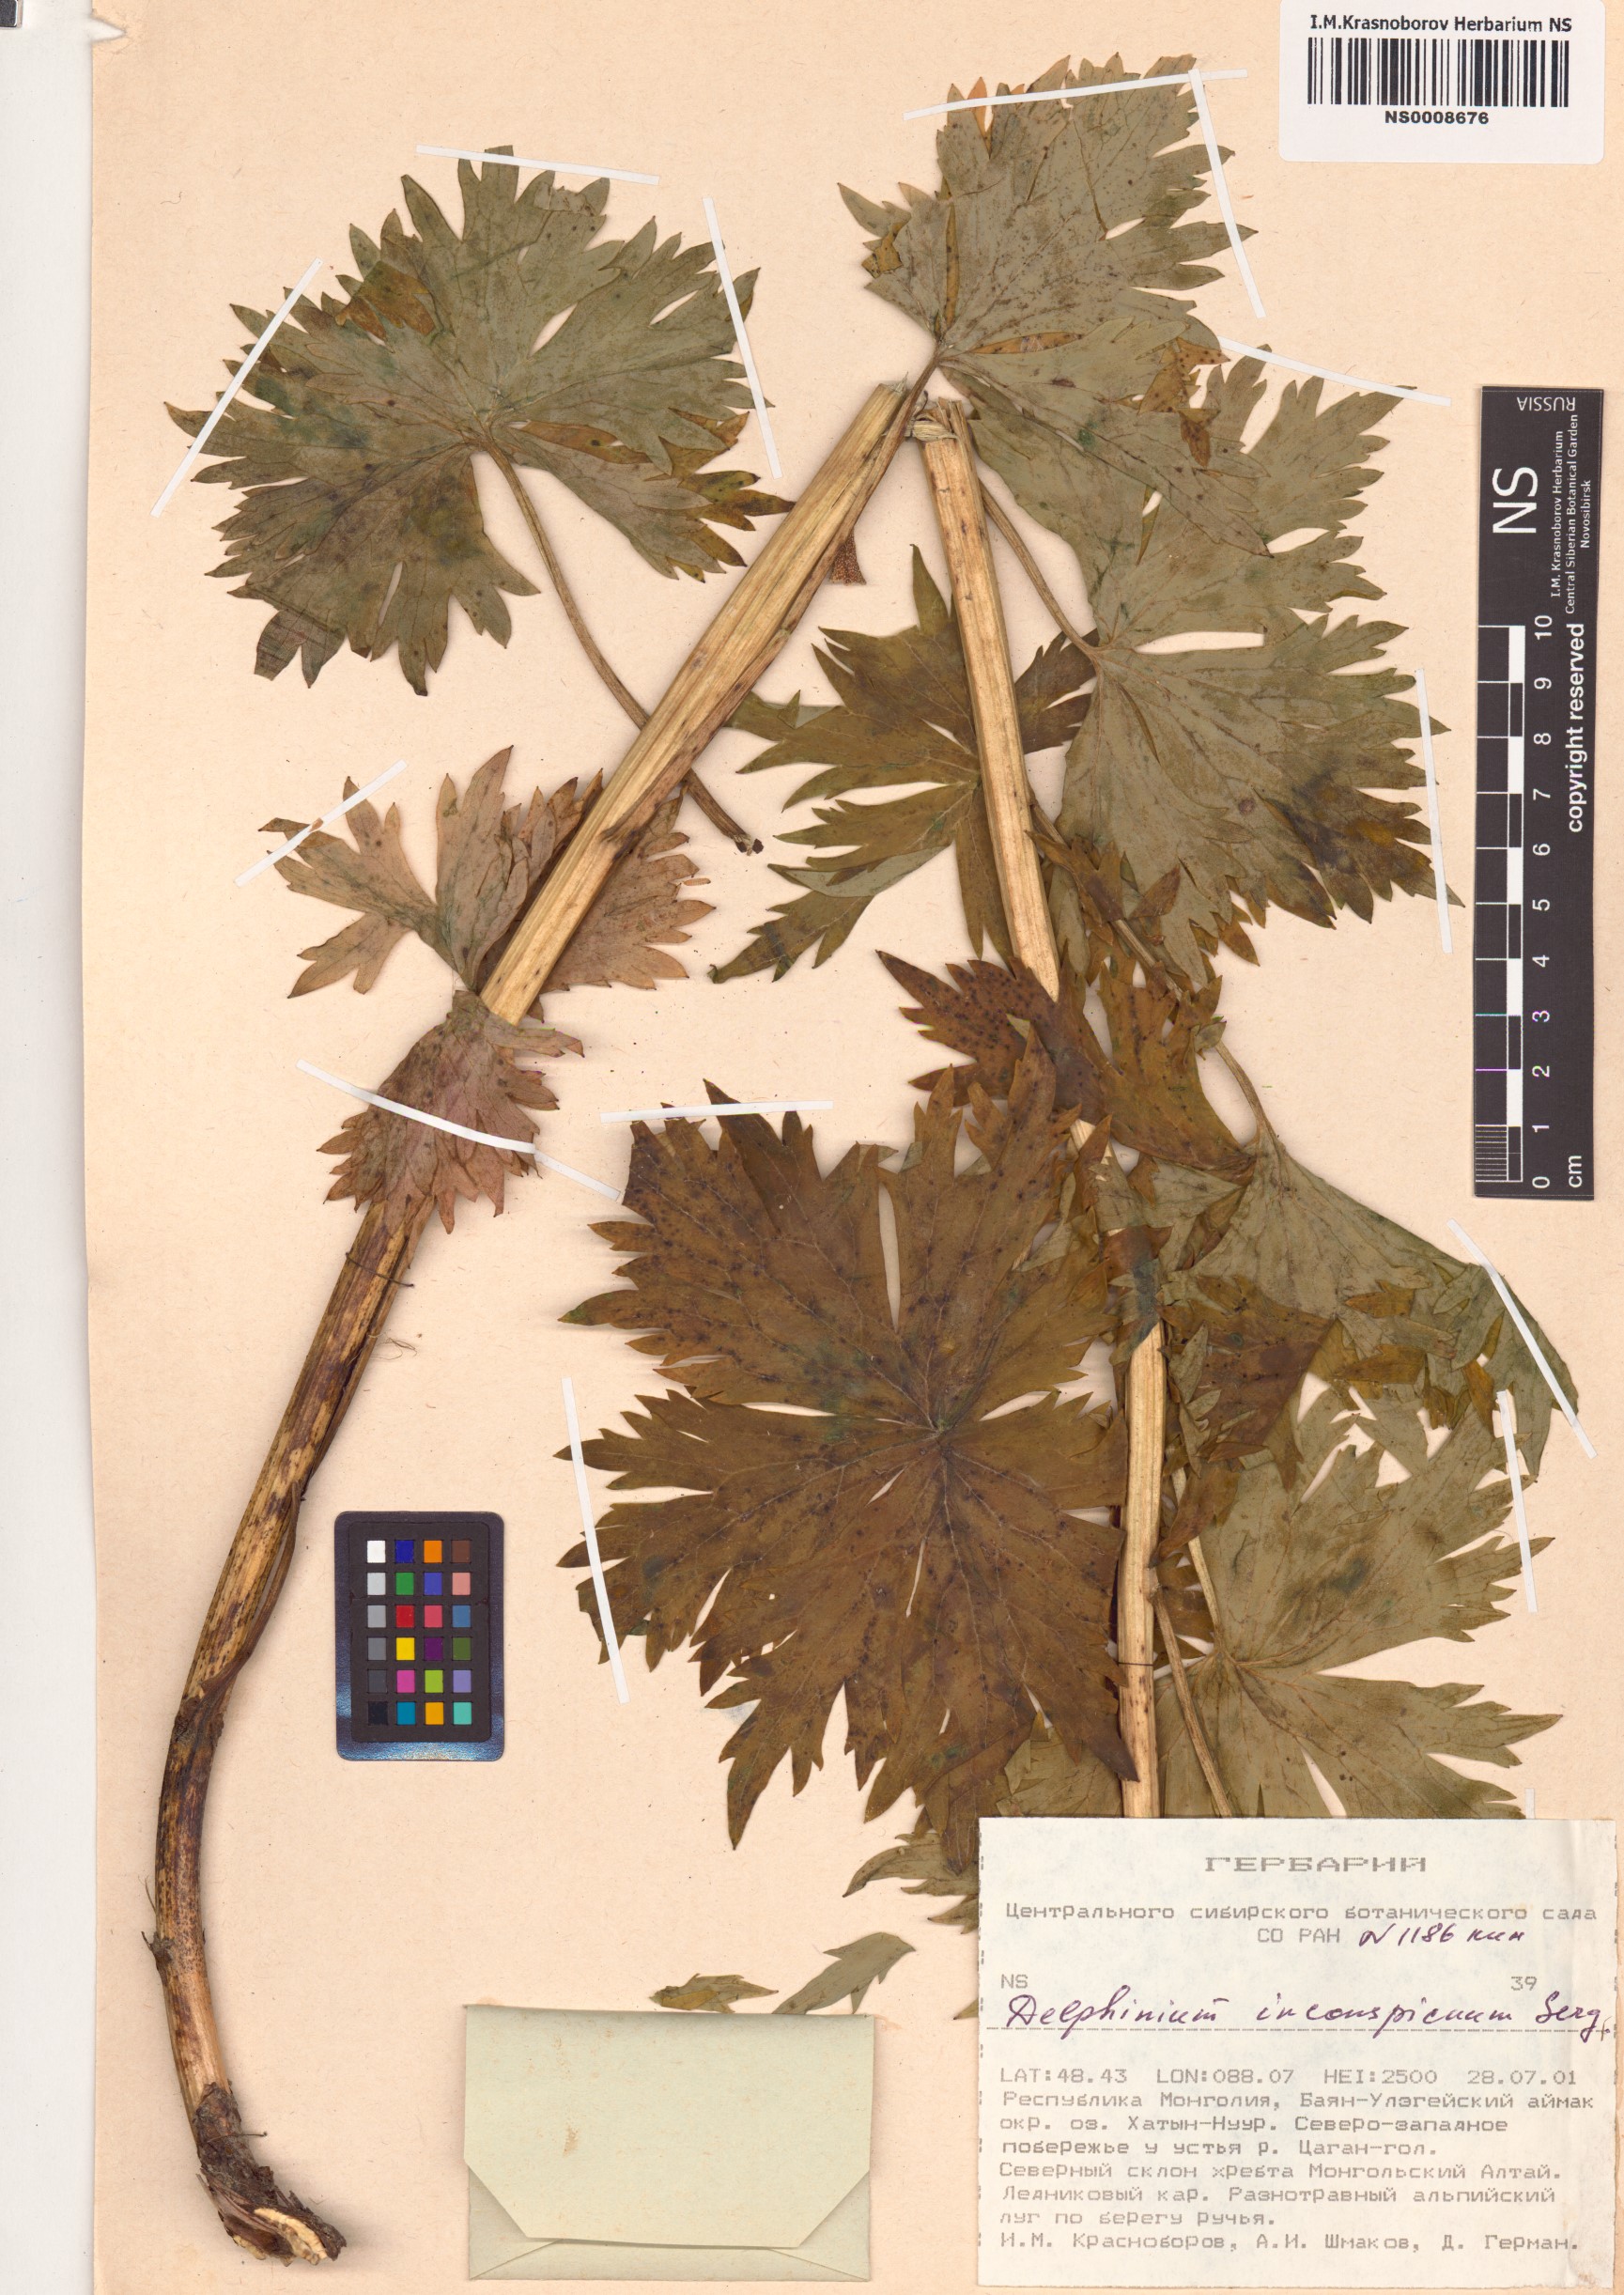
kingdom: Plantae
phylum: Tracheophyta
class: Magnoliopsida
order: Ranunculales
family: Ranunculaceae
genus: Delphinium
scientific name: Delphinium inconspicuum
